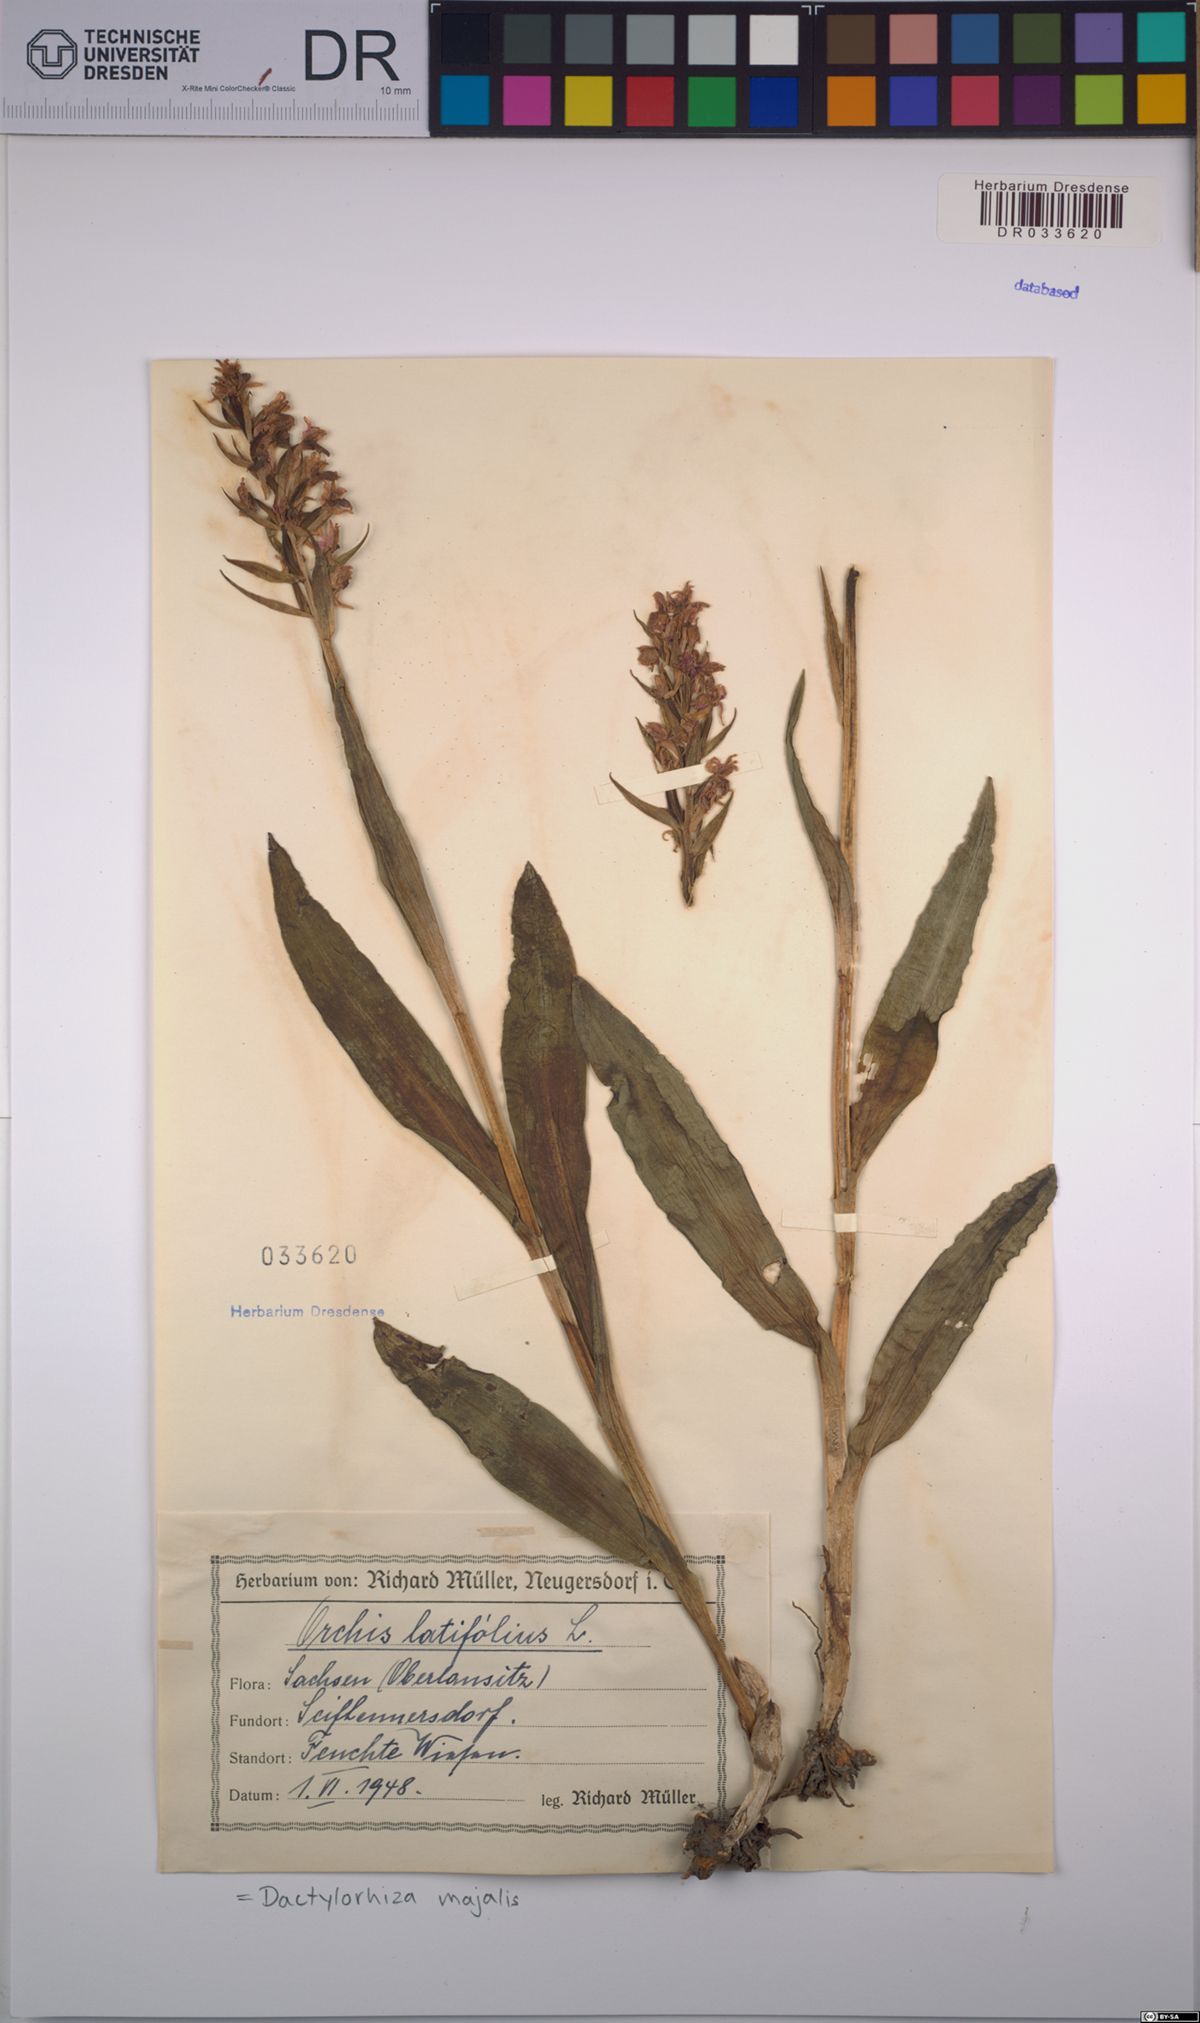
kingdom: Plantae
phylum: Tracheophyta
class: Liliopsida
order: Asparagales
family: Orchidaceae
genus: Dactylorhiza
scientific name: Dactylorhiza majalis
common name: Marsh orchid
